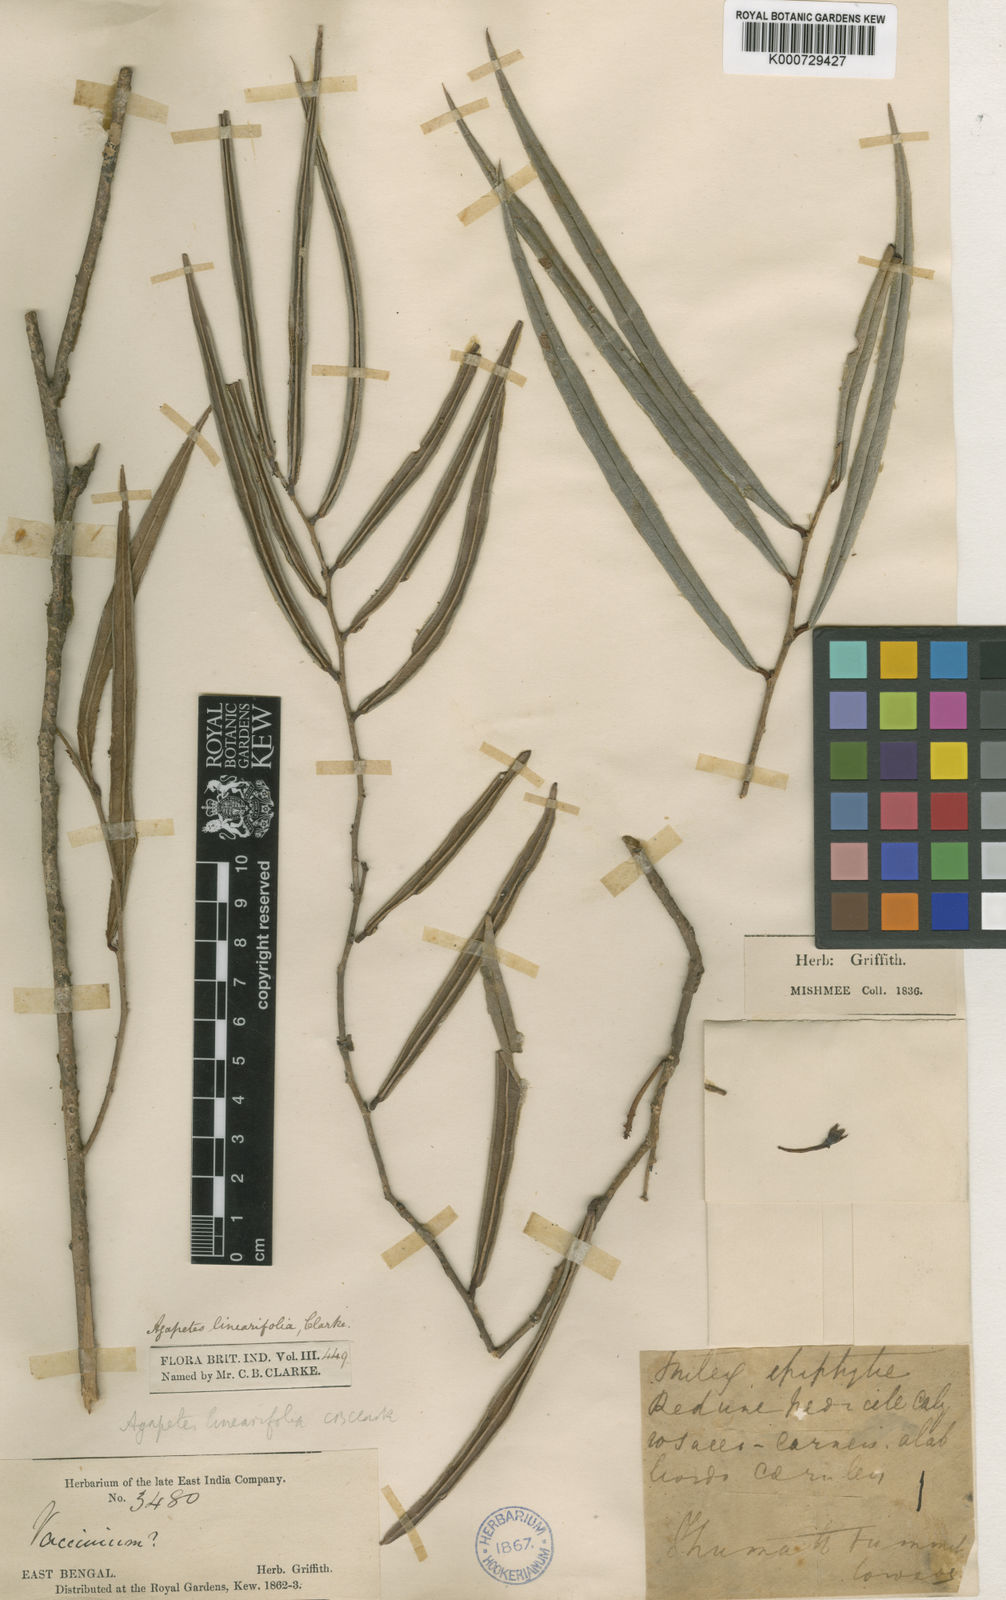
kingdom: Plantae
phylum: Tracheophyta
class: Magnoliopsida
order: Ericales
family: Ericaceae
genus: Agapetes
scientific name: Agapetes linearifolia
